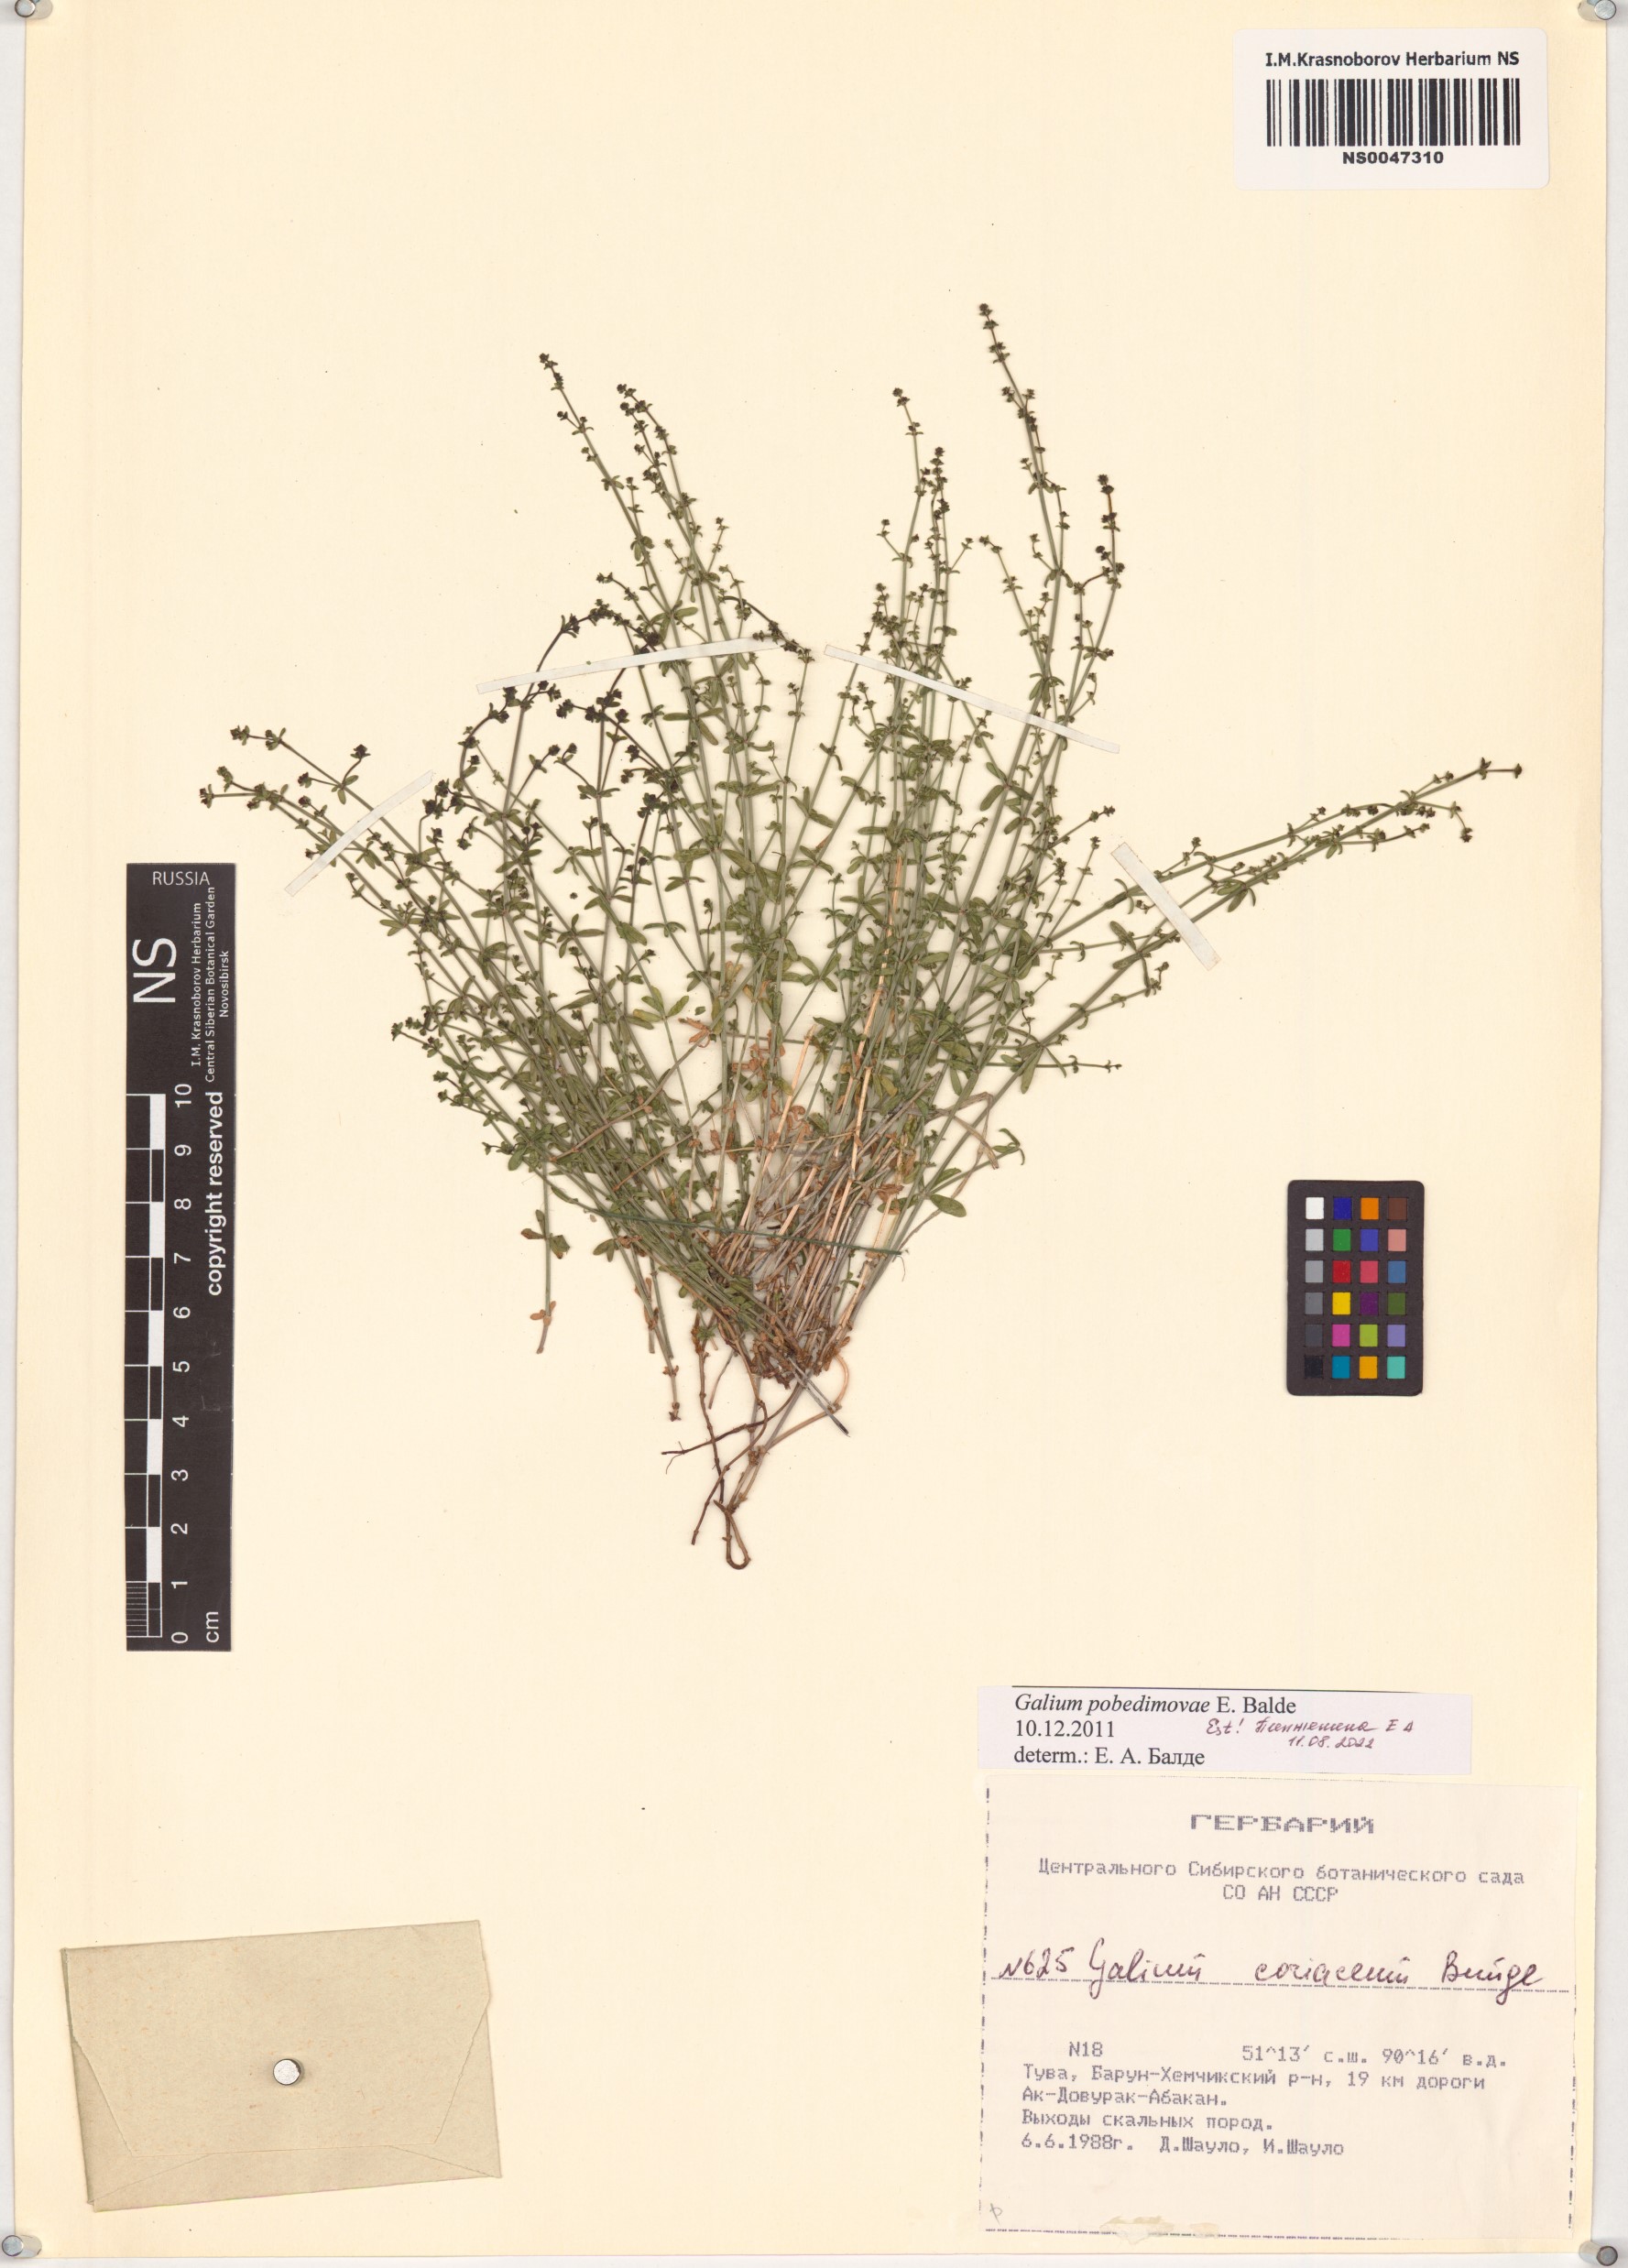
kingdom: Plantae
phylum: Tracheophyta
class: Magnoliopsida
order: Gentianales
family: Rubiaceae
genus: Galium
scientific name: Galium pobedimovae
